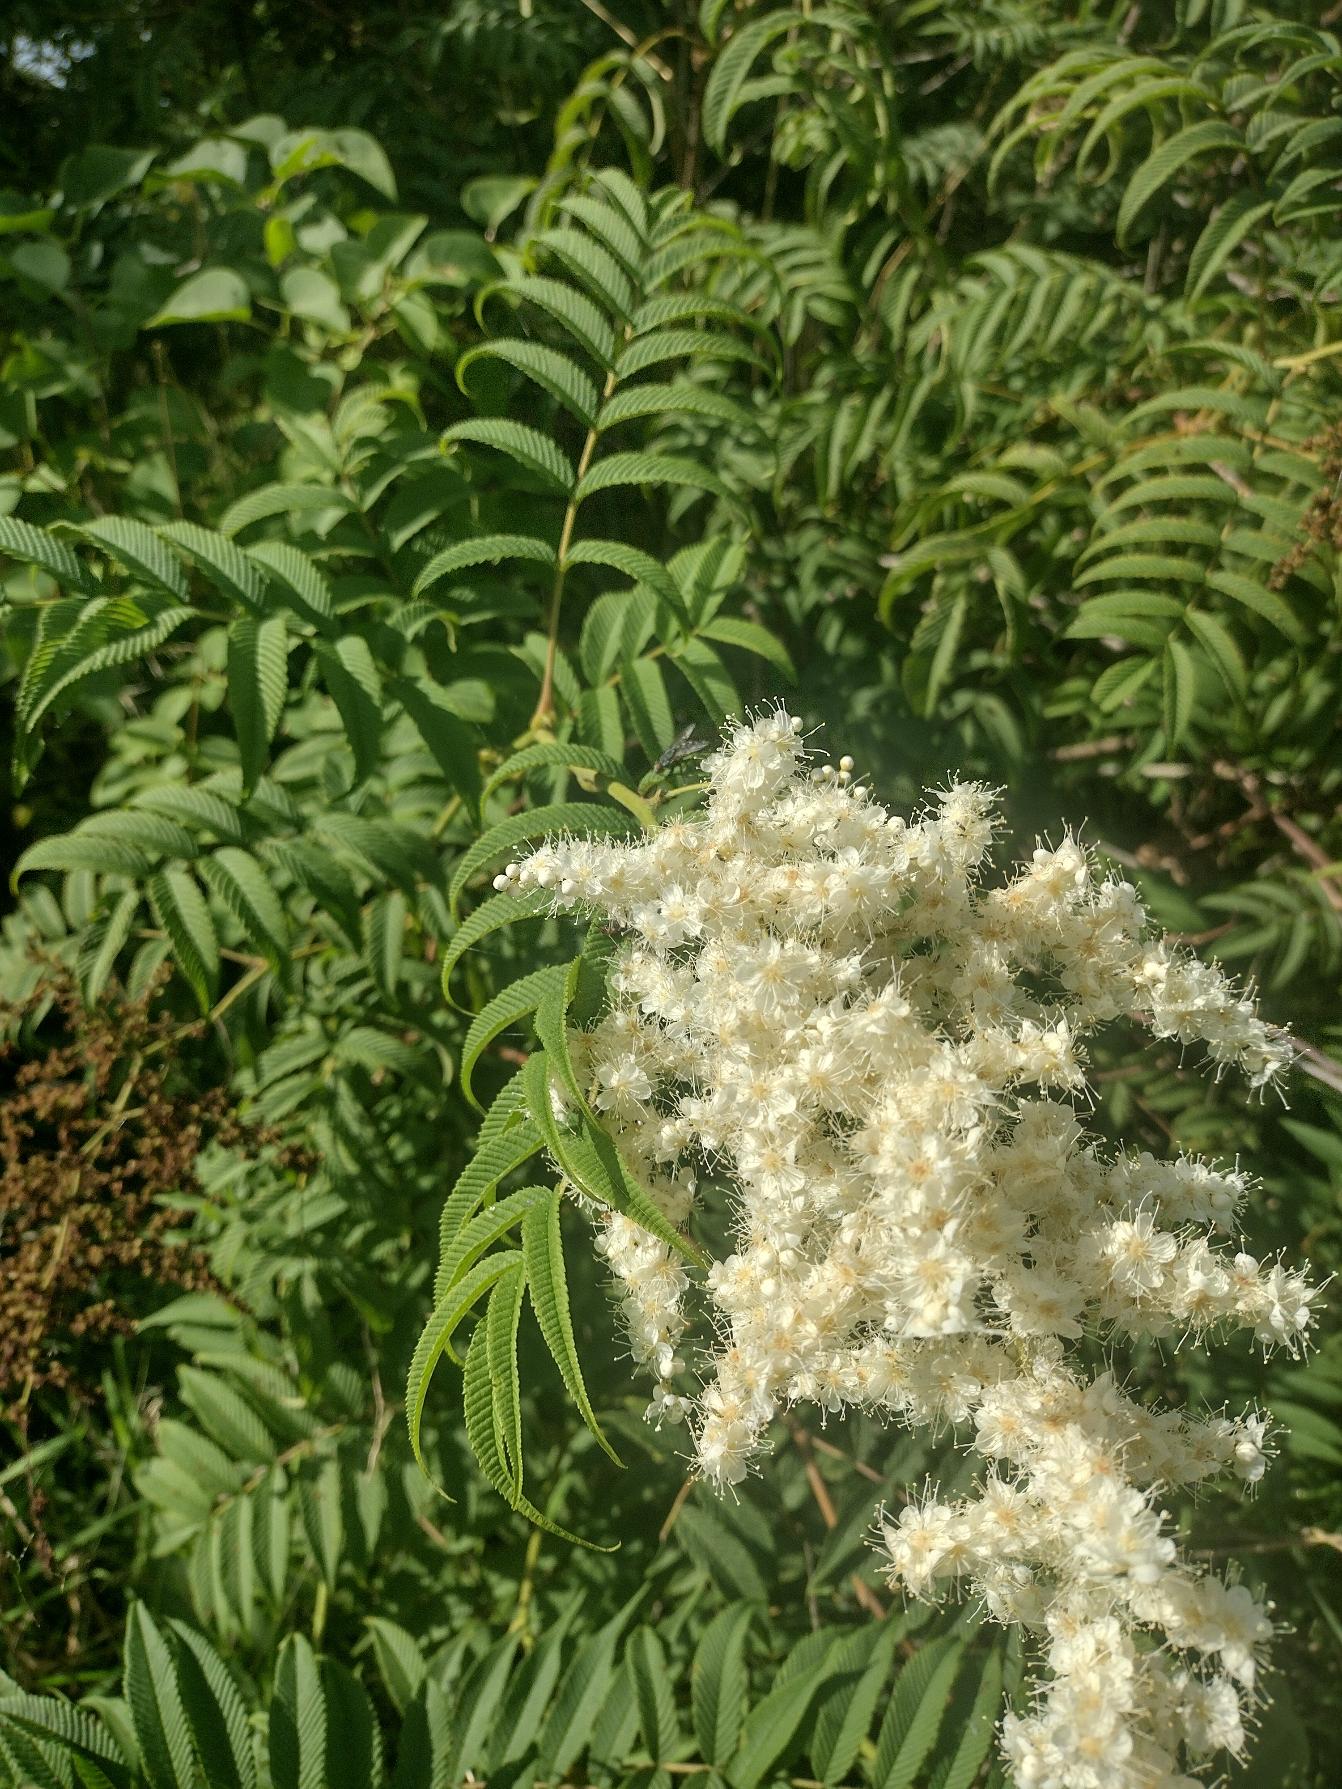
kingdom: Plantae
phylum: Tracheophyta
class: Magnoliopsida
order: Rosales
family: Rosaceae
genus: Sorbaria
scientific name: Sorbaria kirilowii
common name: Kinesisk tusindtop
